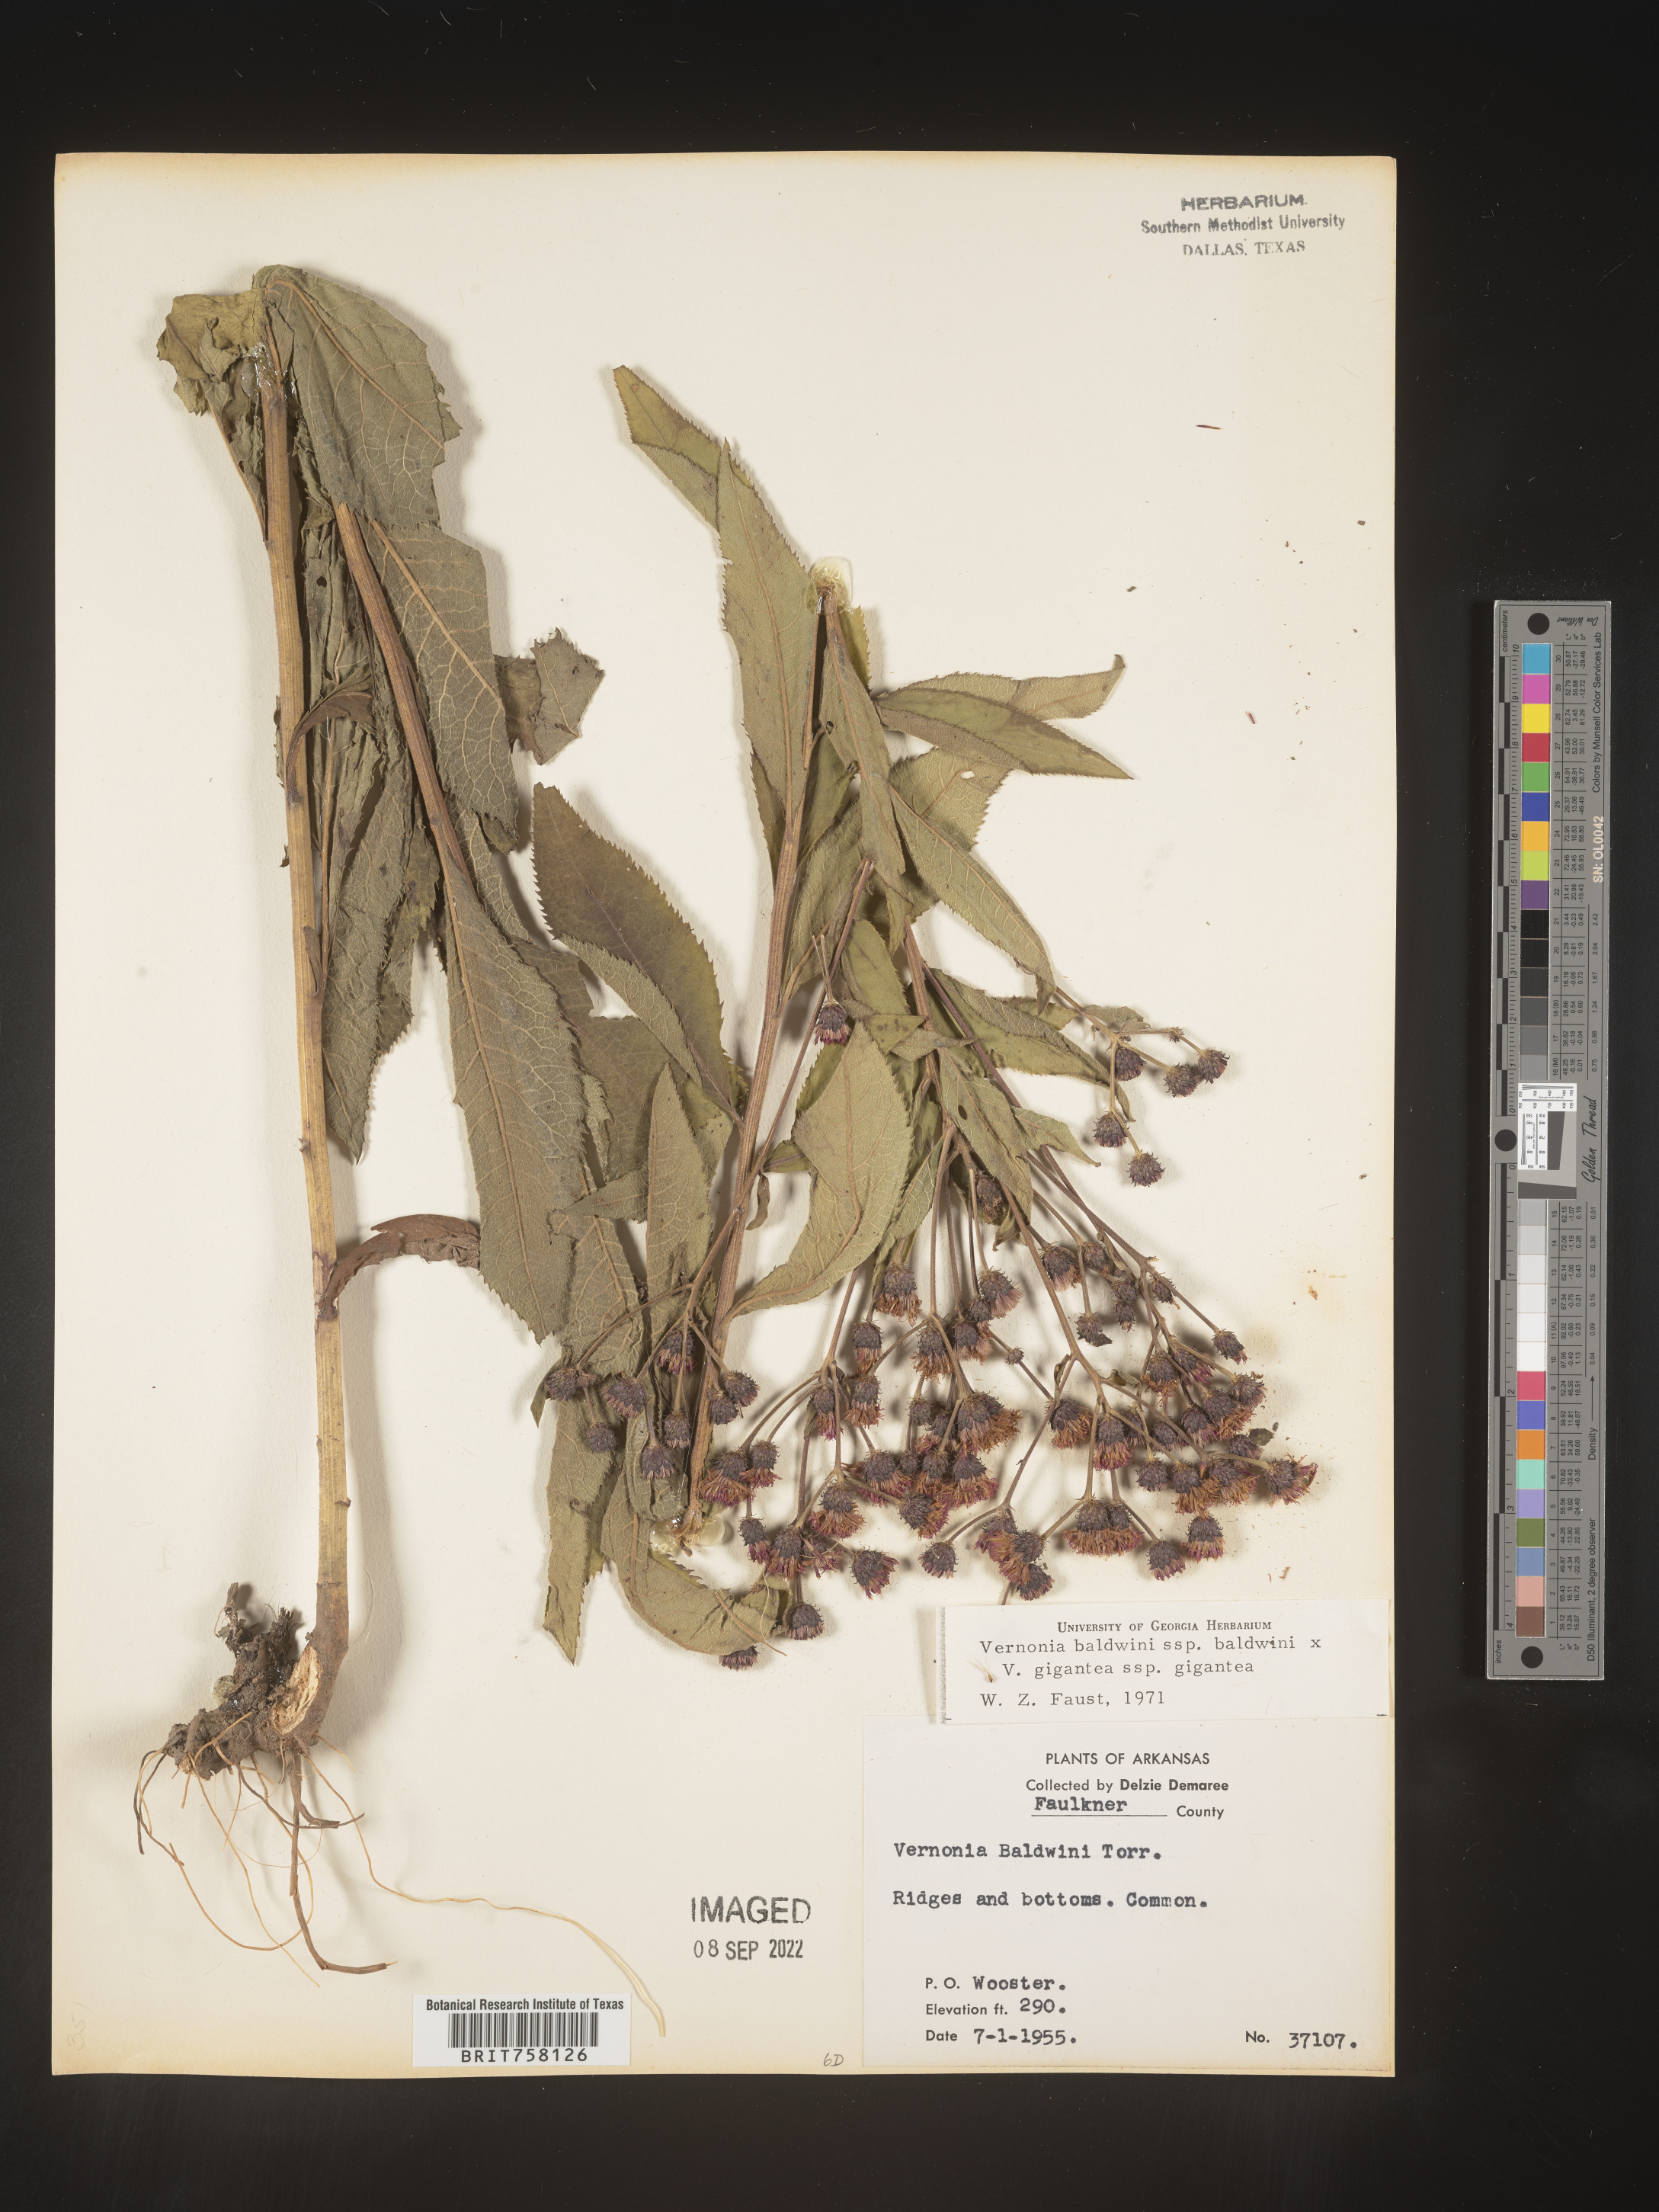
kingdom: Plantae
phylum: Tracheophyta
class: Magnoliopsida
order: Asterales
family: Asteraceae
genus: Vernonia
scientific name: Vernonia baldwinii
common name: Western ironweed
